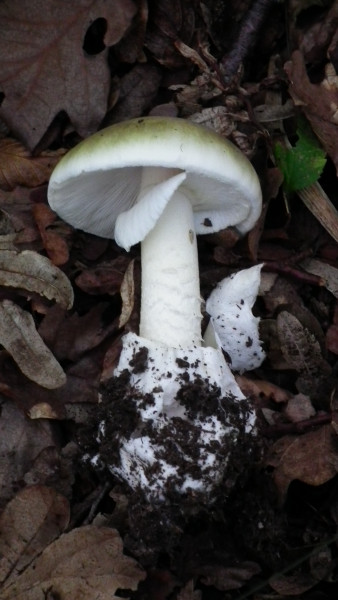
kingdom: Fungi
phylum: Basidiomycota
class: Agaricomycetes
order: Agaricales
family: Amanitaceae
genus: Amanita
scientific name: Amanita phalloides
